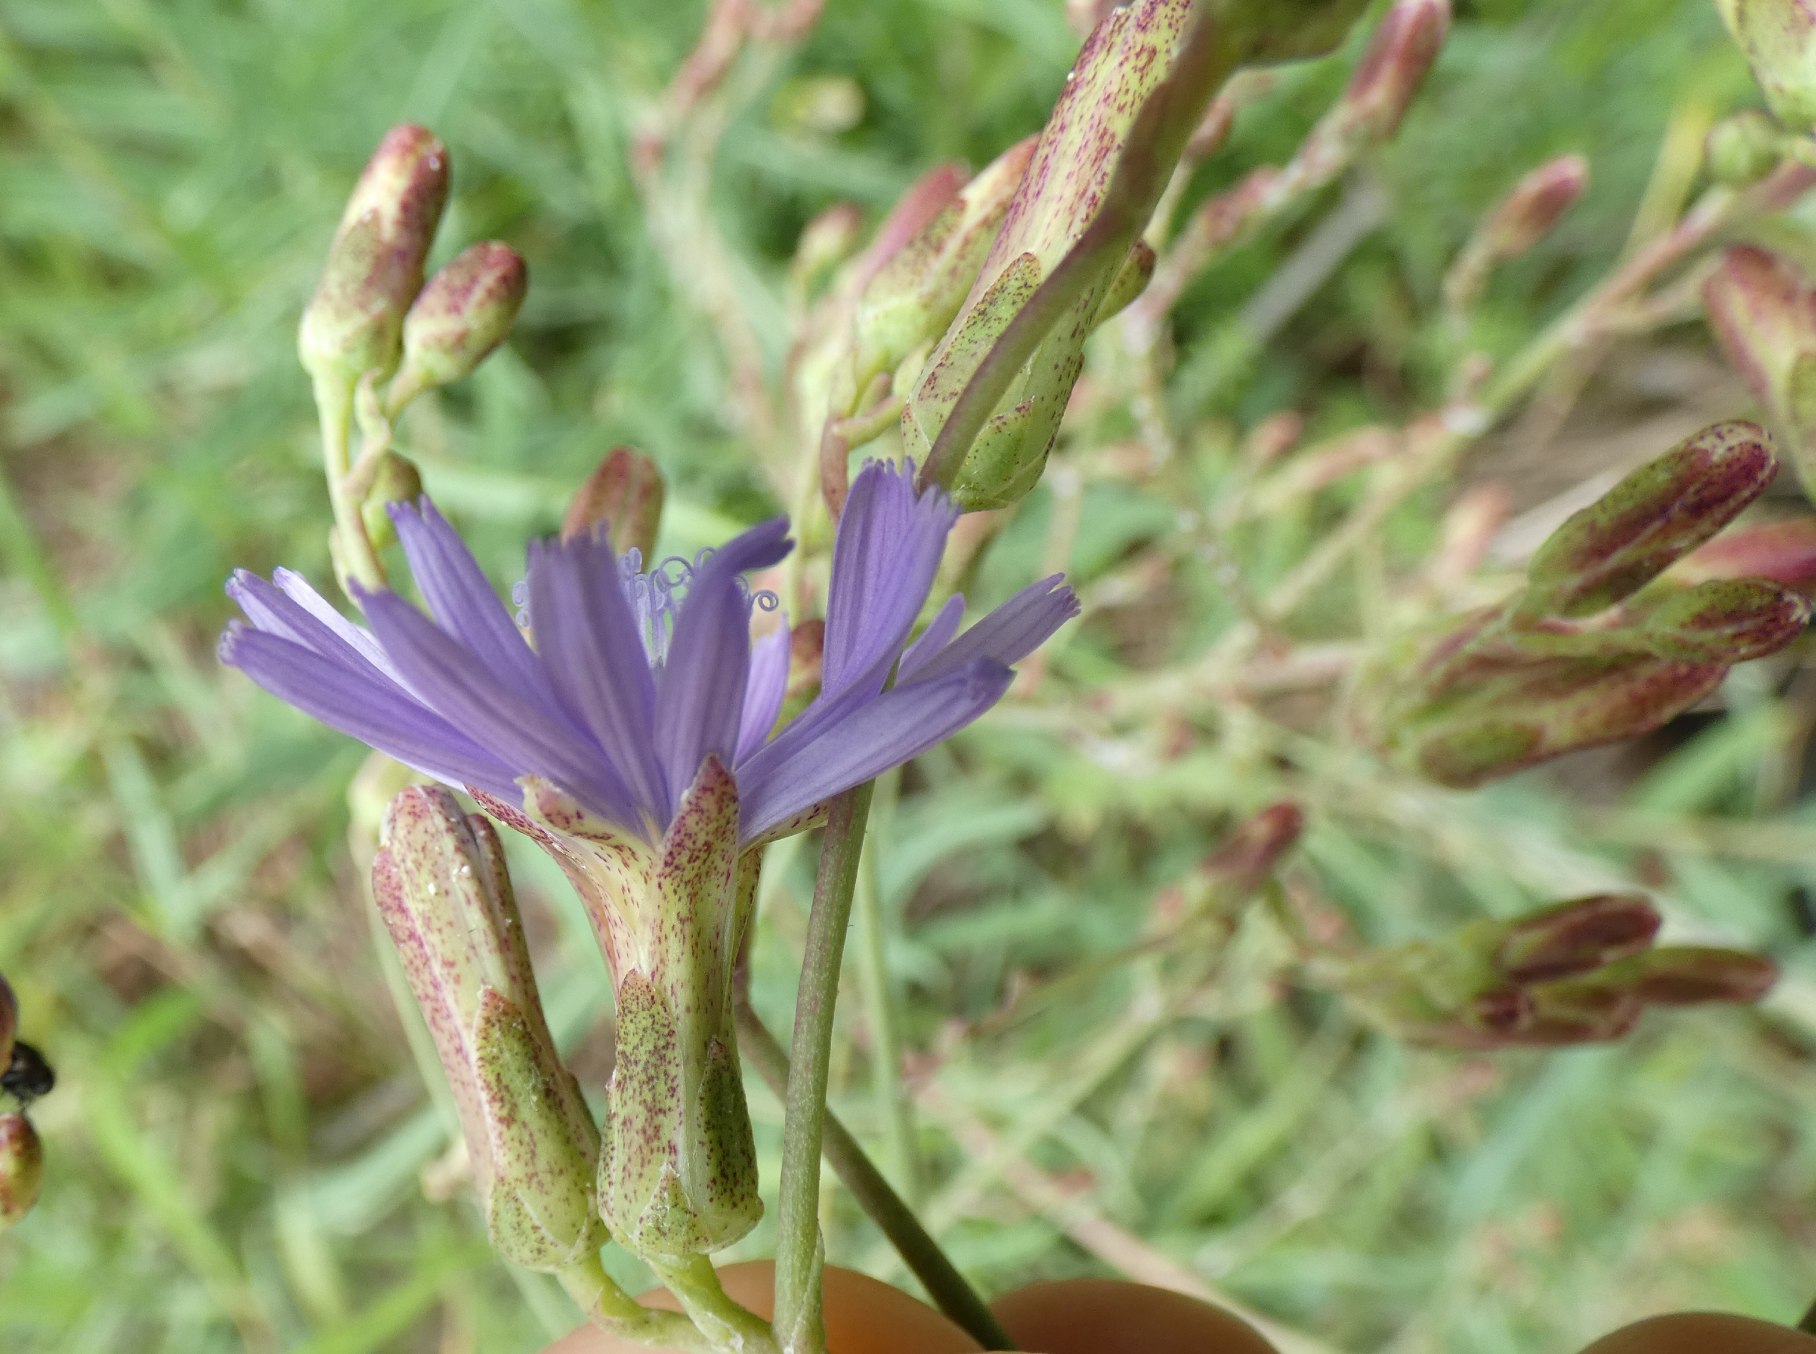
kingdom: Plantae
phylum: Tracheophyta
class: Magnoliopsida
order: Asterales
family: Asteraceae
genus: Lactuca
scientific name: Lactuca tatarica
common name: Strand-salat
